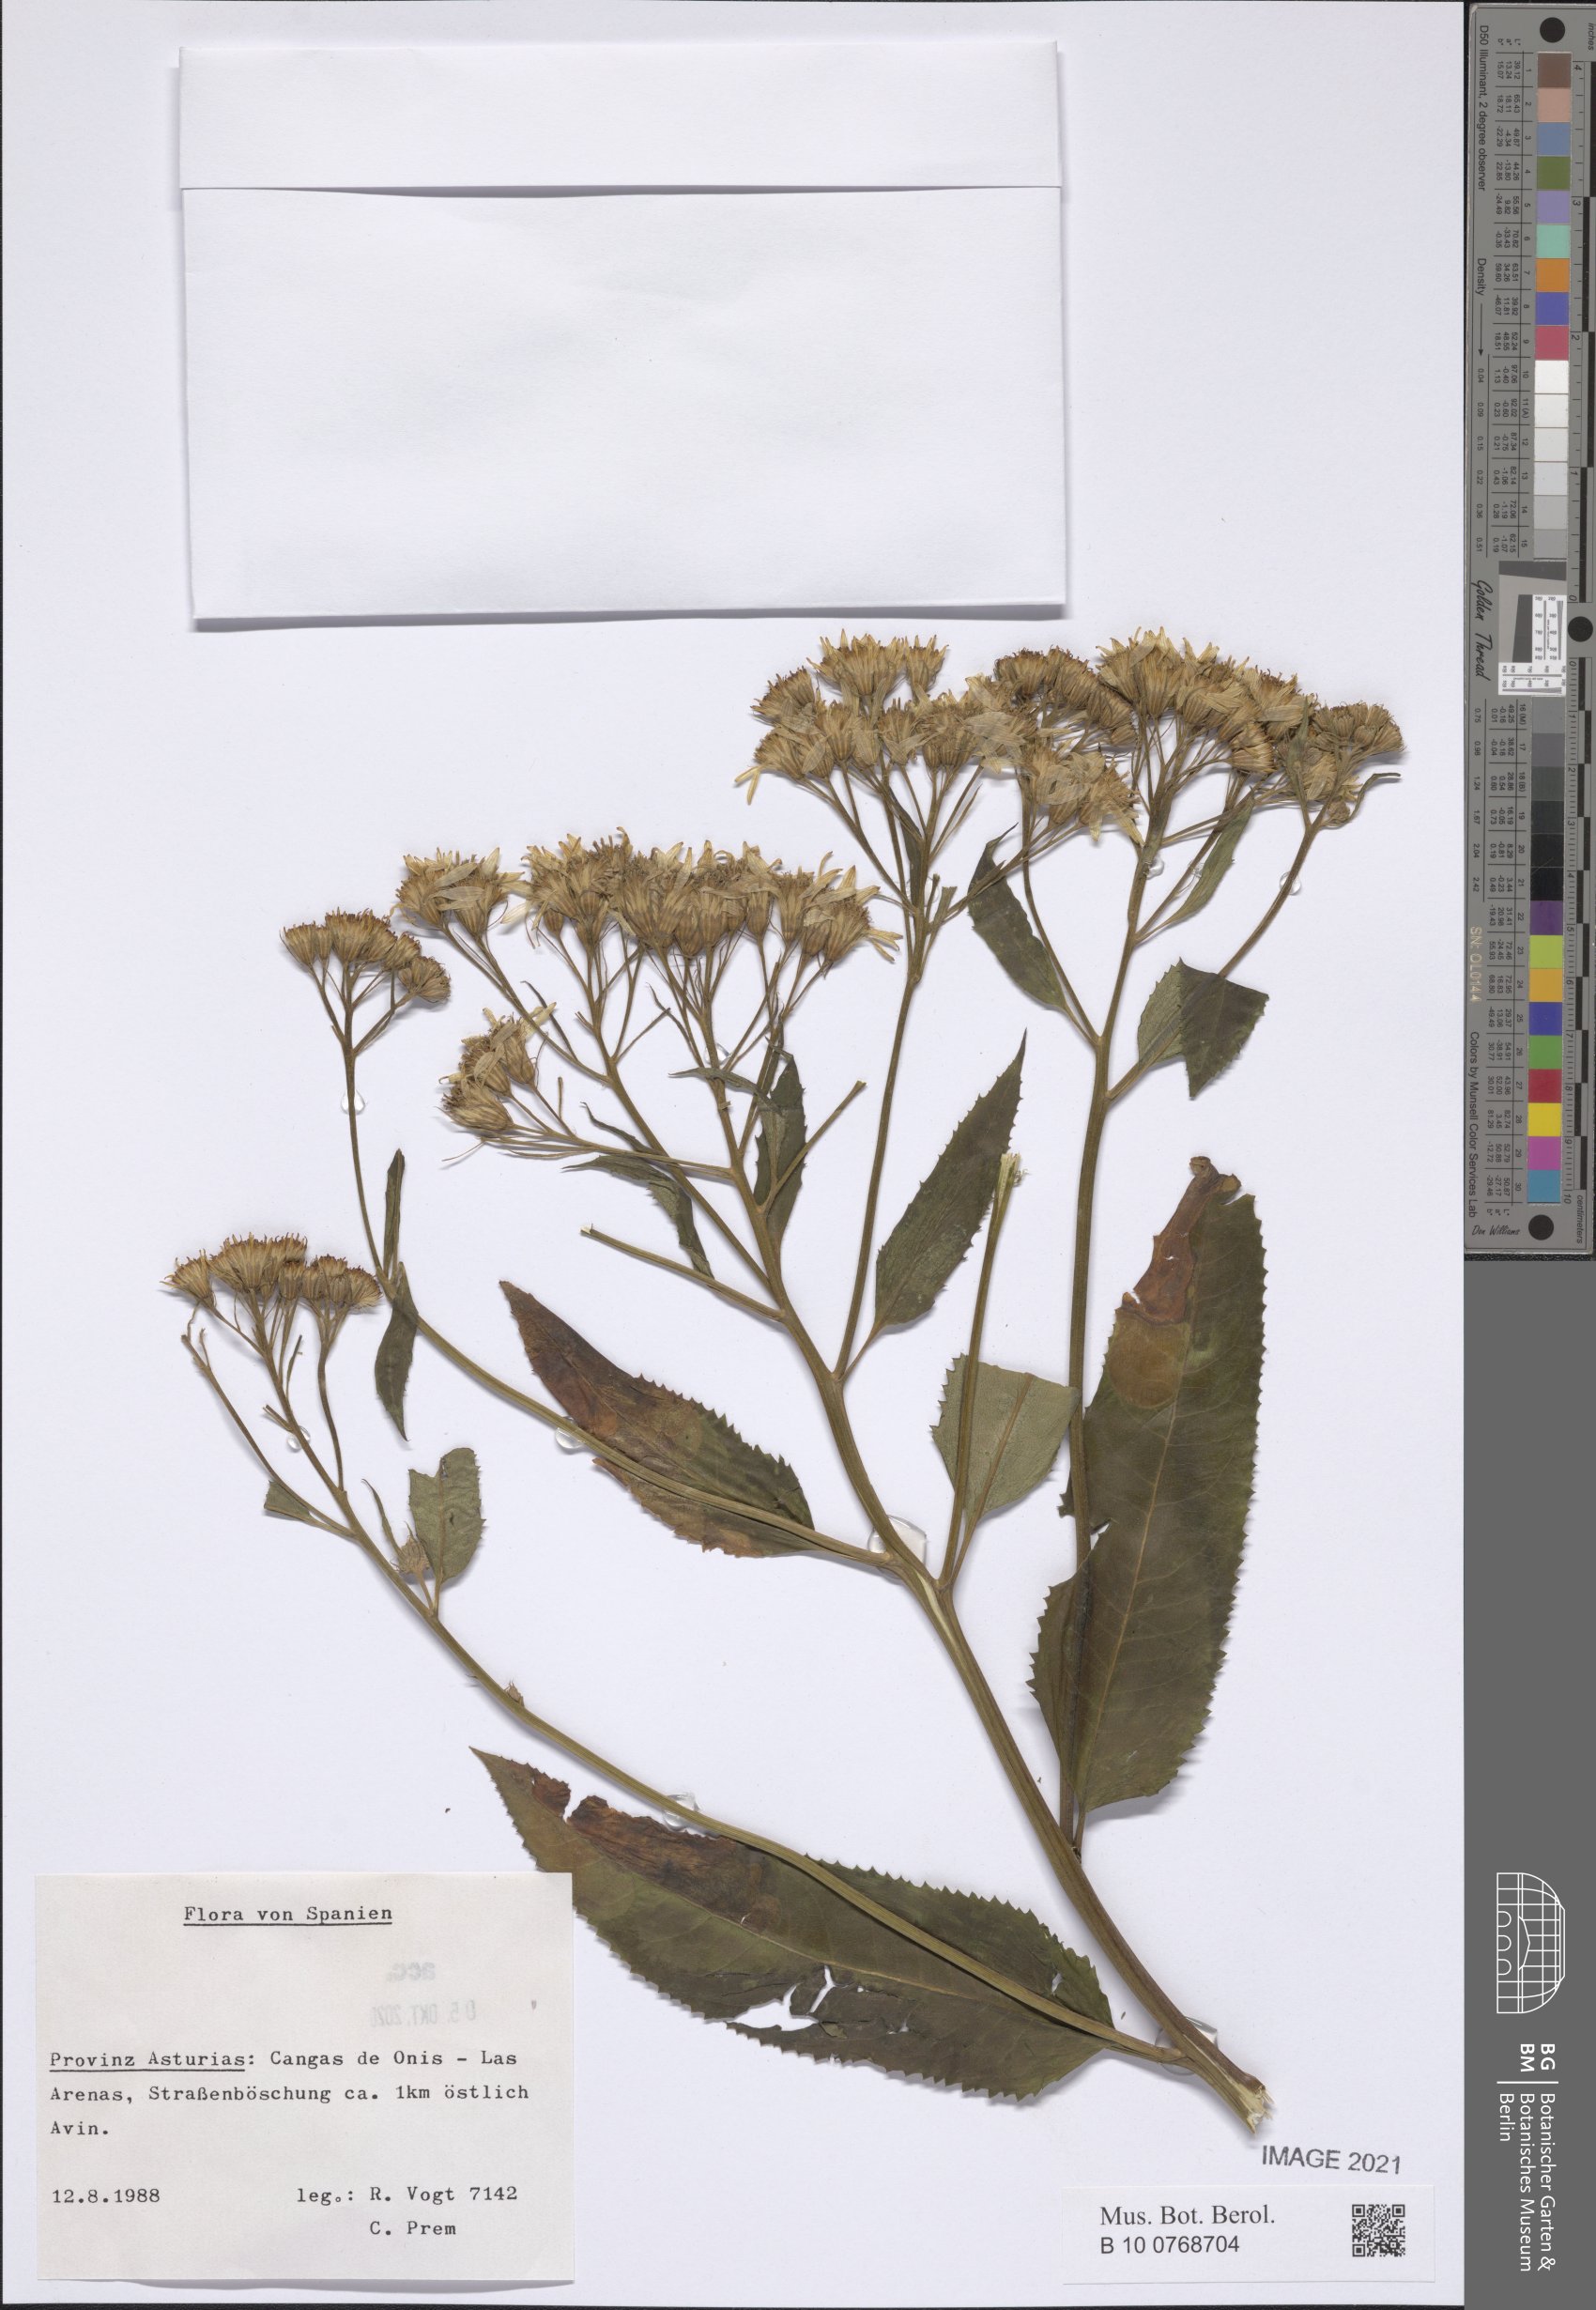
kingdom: Plantae
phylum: Tracheophyta
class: Magnoliopsida
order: Asterales
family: Asteraceae
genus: Senecio
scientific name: Senecio
